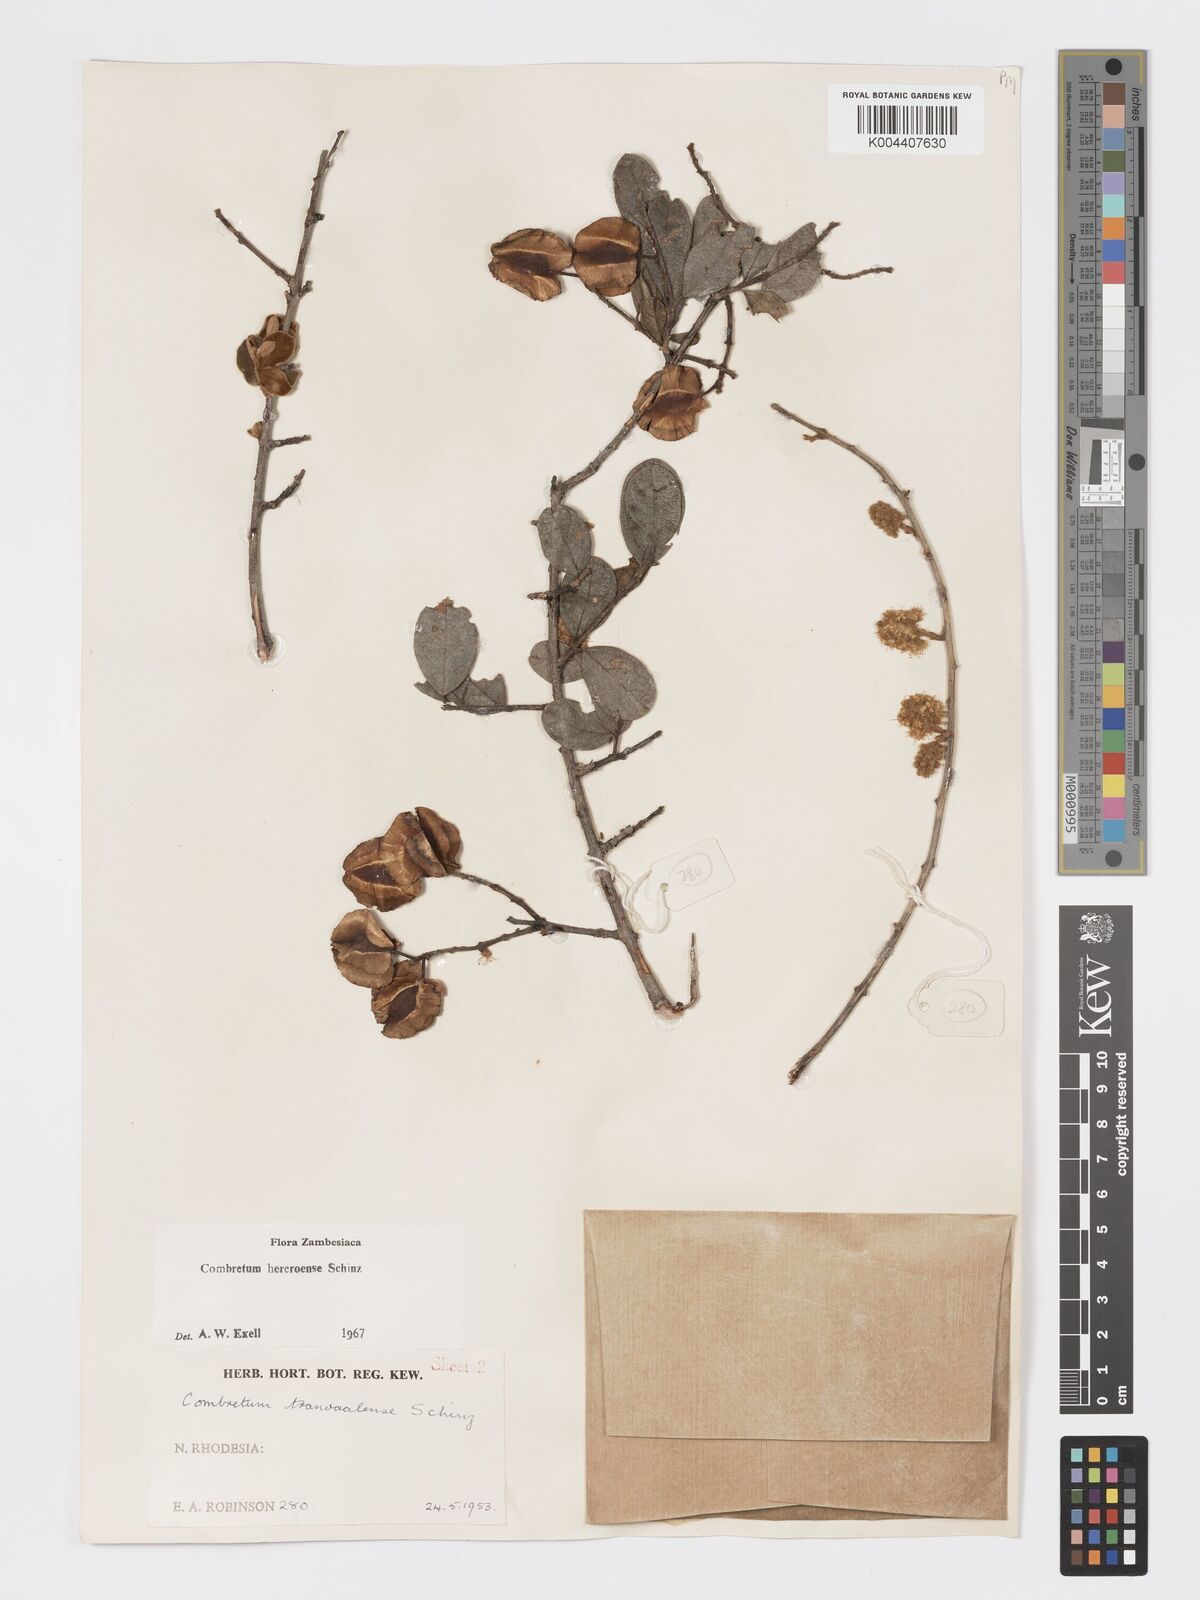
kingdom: Plantae
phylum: Tracheophyta
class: Magnoliopsida
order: Myrtales
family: Combretaceae
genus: Combretum
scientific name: Combretum hereroense
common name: Russet bushwillow
